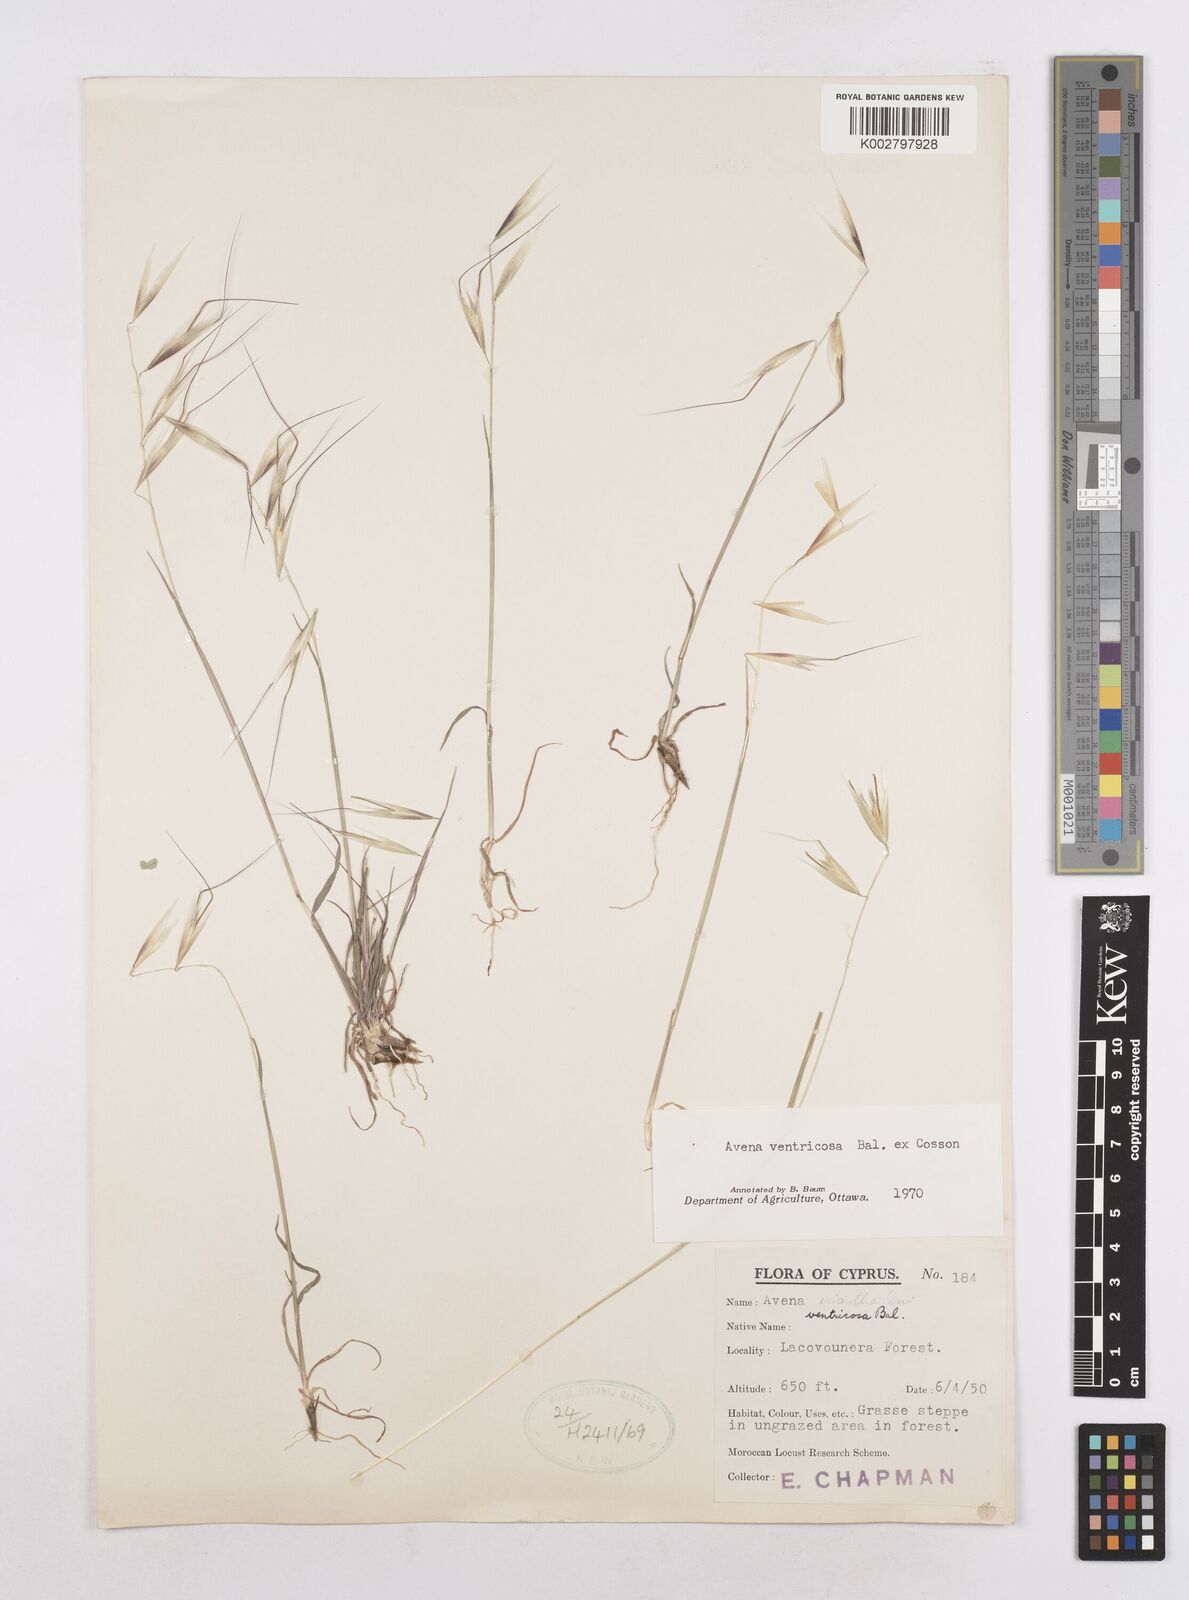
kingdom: Plantae
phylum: Tracheophyta
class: Liliopsida
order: Poales
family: Poaceae
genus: Avena
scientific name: Avena ventricosa
